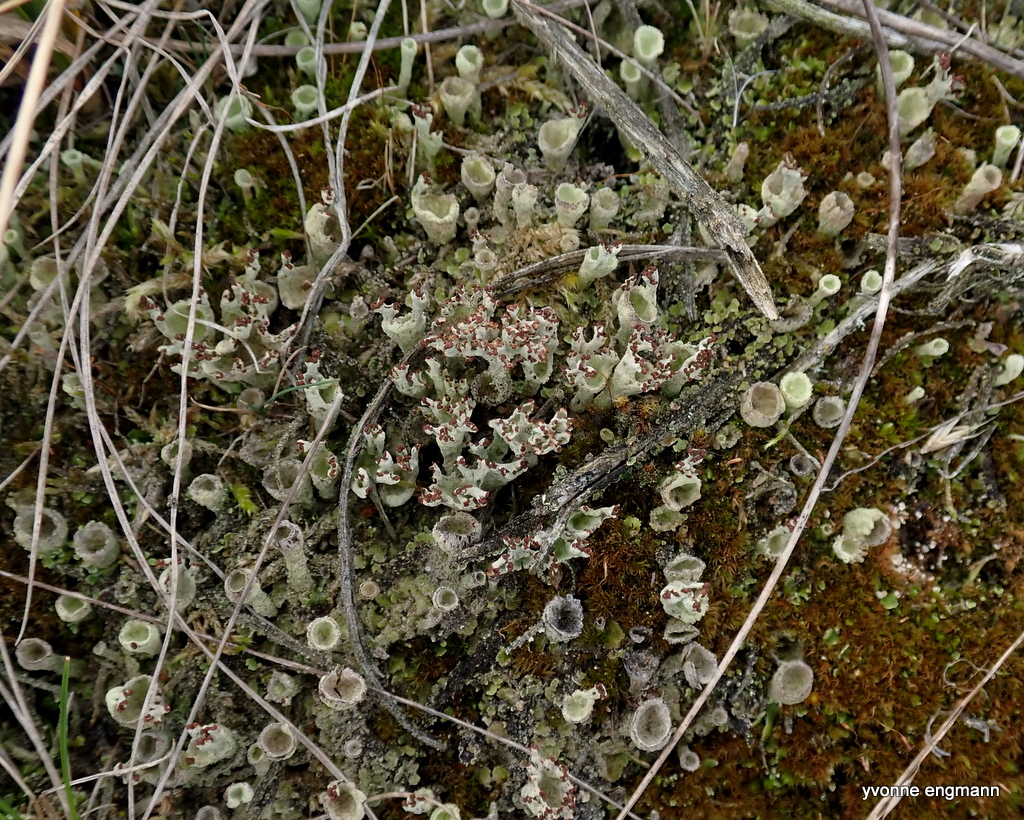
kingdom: Fungi
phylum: Ascomycota
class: Lecanoromycetes
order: Lecanorales
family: Cladoniaceae
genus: Cladonia
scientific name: Cladonia
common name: brungrøn bægerlav
